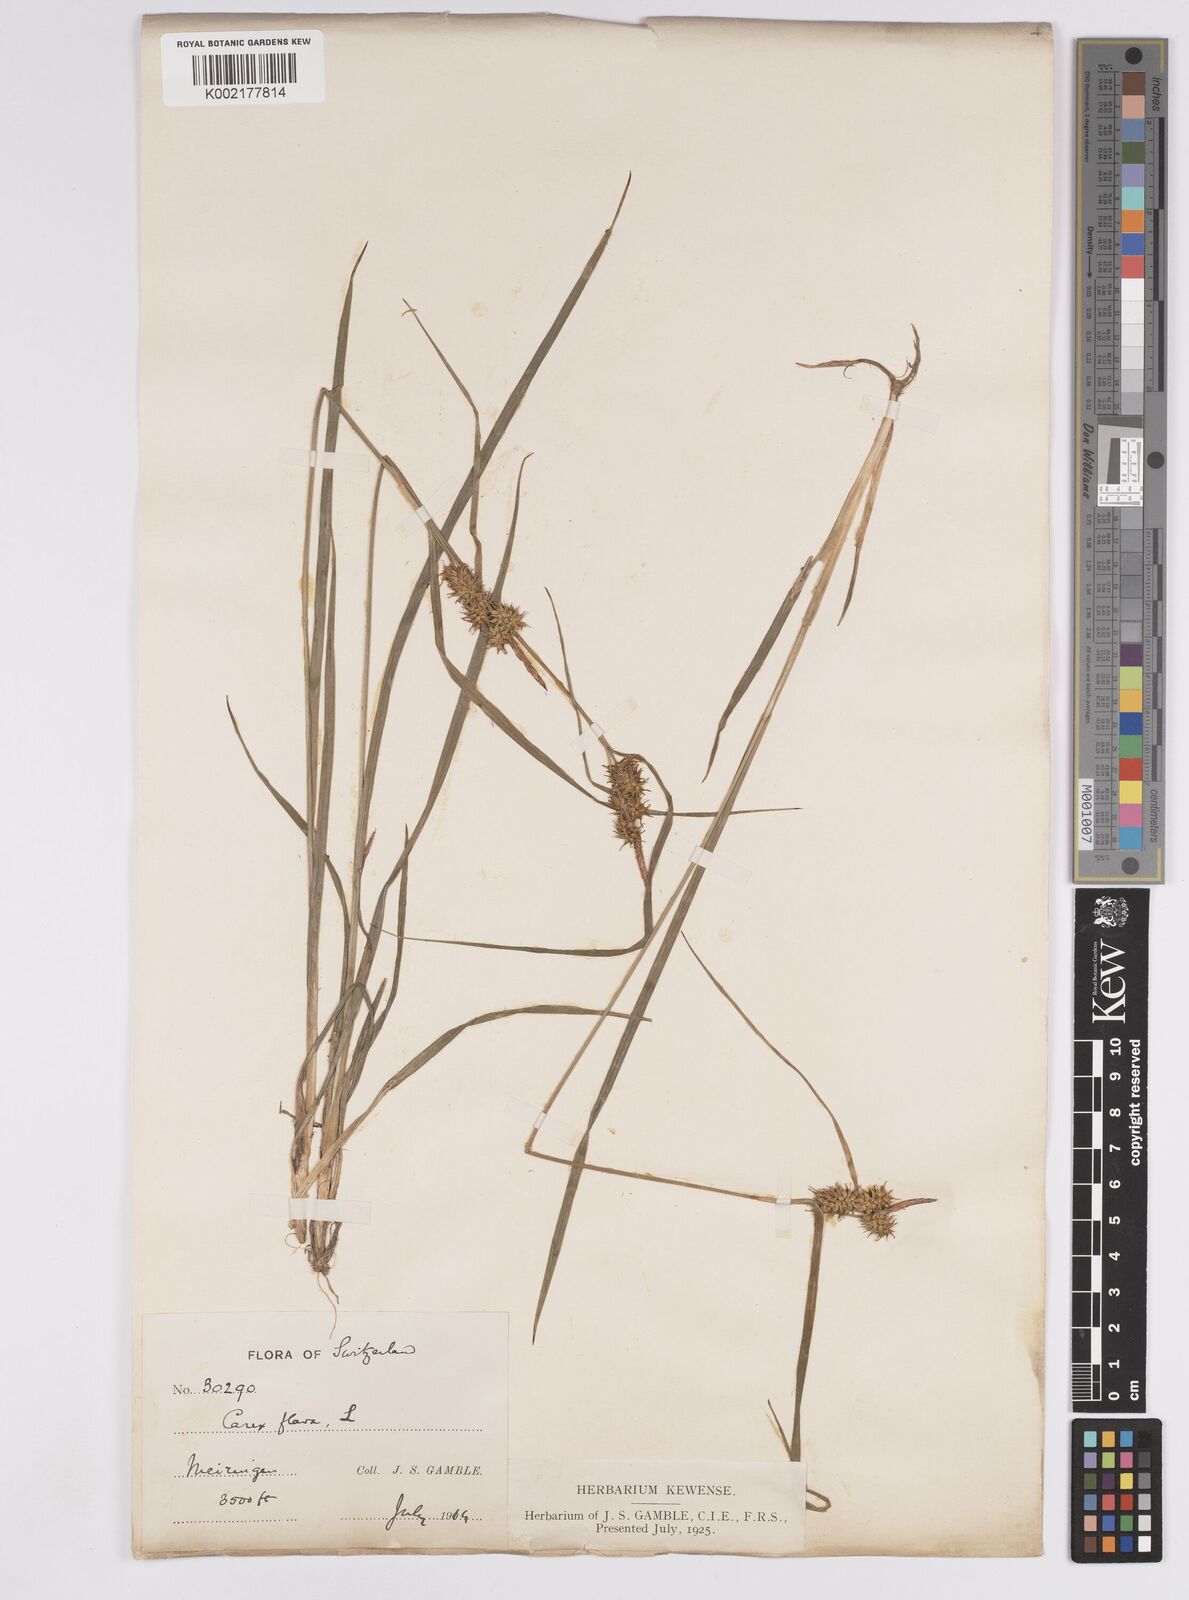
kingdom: Plantae
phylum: Tracheophyta
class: Liliopsida
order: Poales
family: Cyperaceae
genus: Carex
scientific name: Carex flava
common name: Large yellow-sedge
